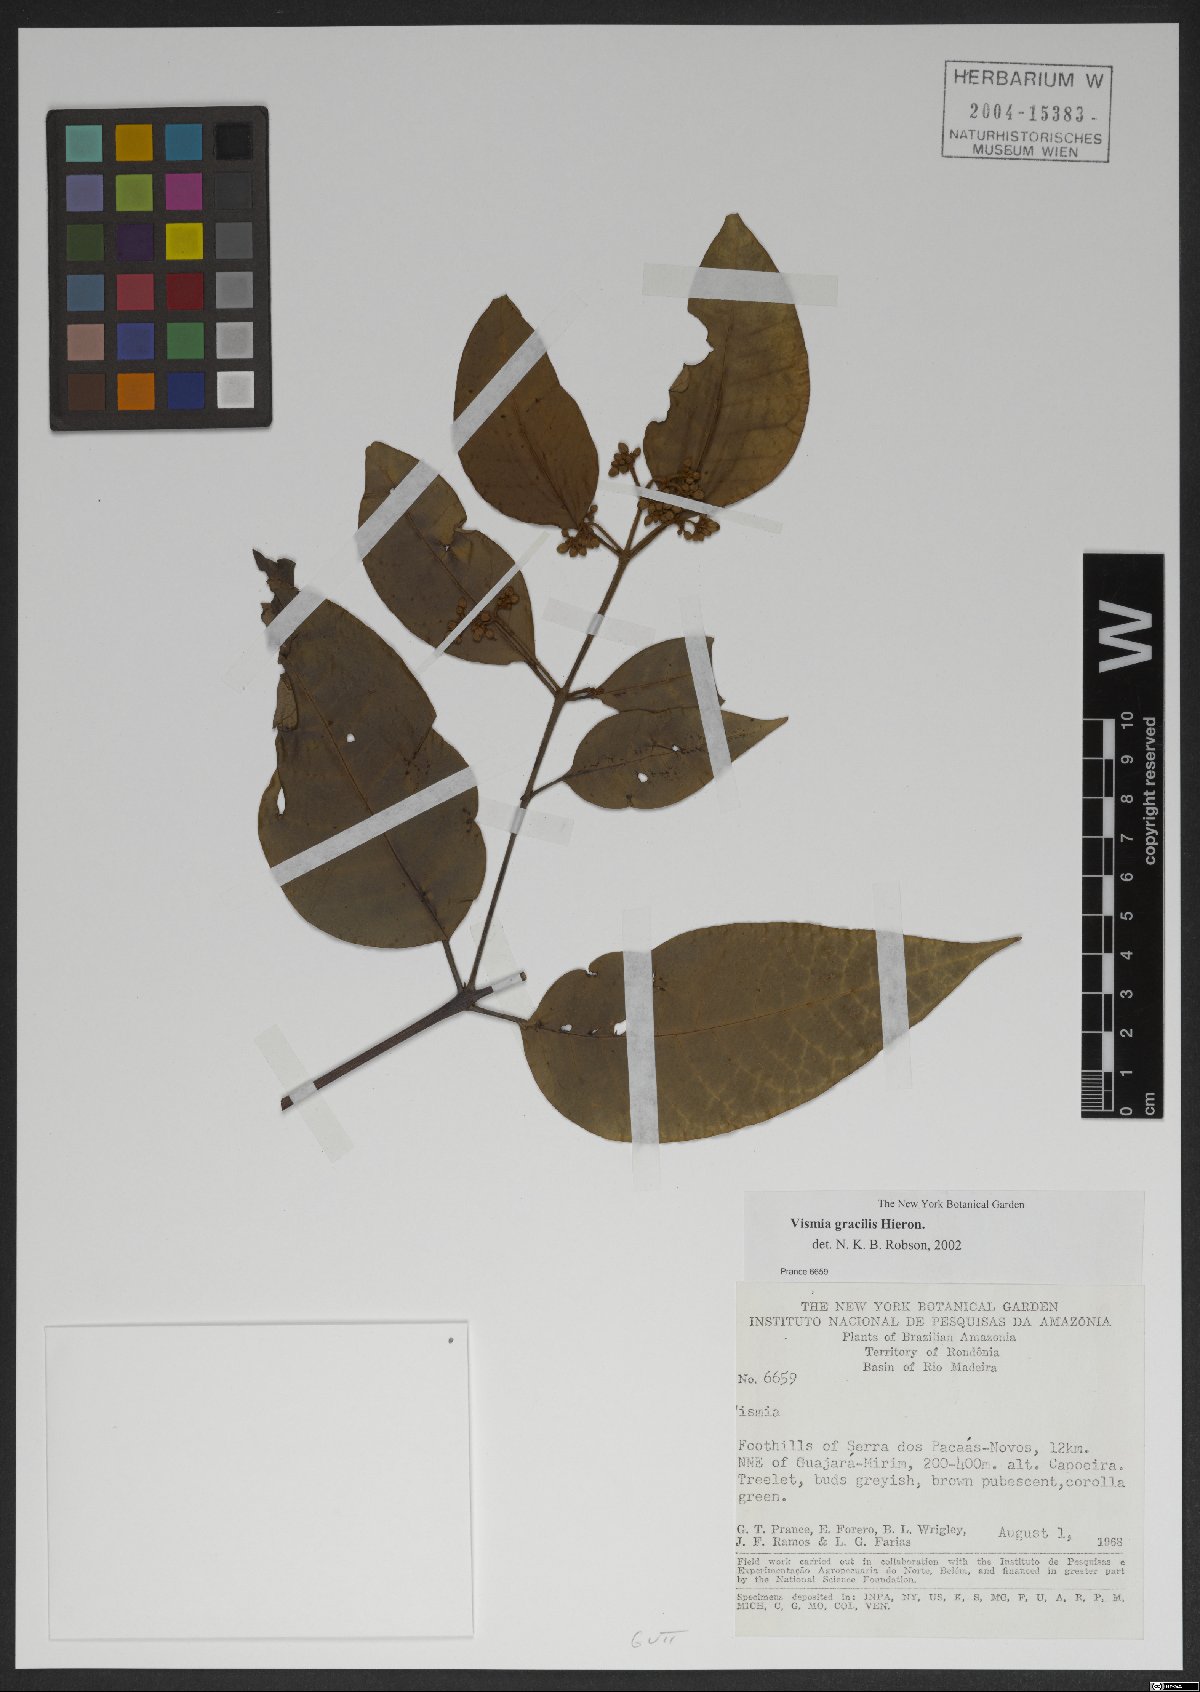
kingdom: Plantae
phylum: Tracheophyta
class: Magnoliopsida
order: Malpighiales
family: Hypericaceae
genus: Vismia
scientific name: Vismia gracilis
